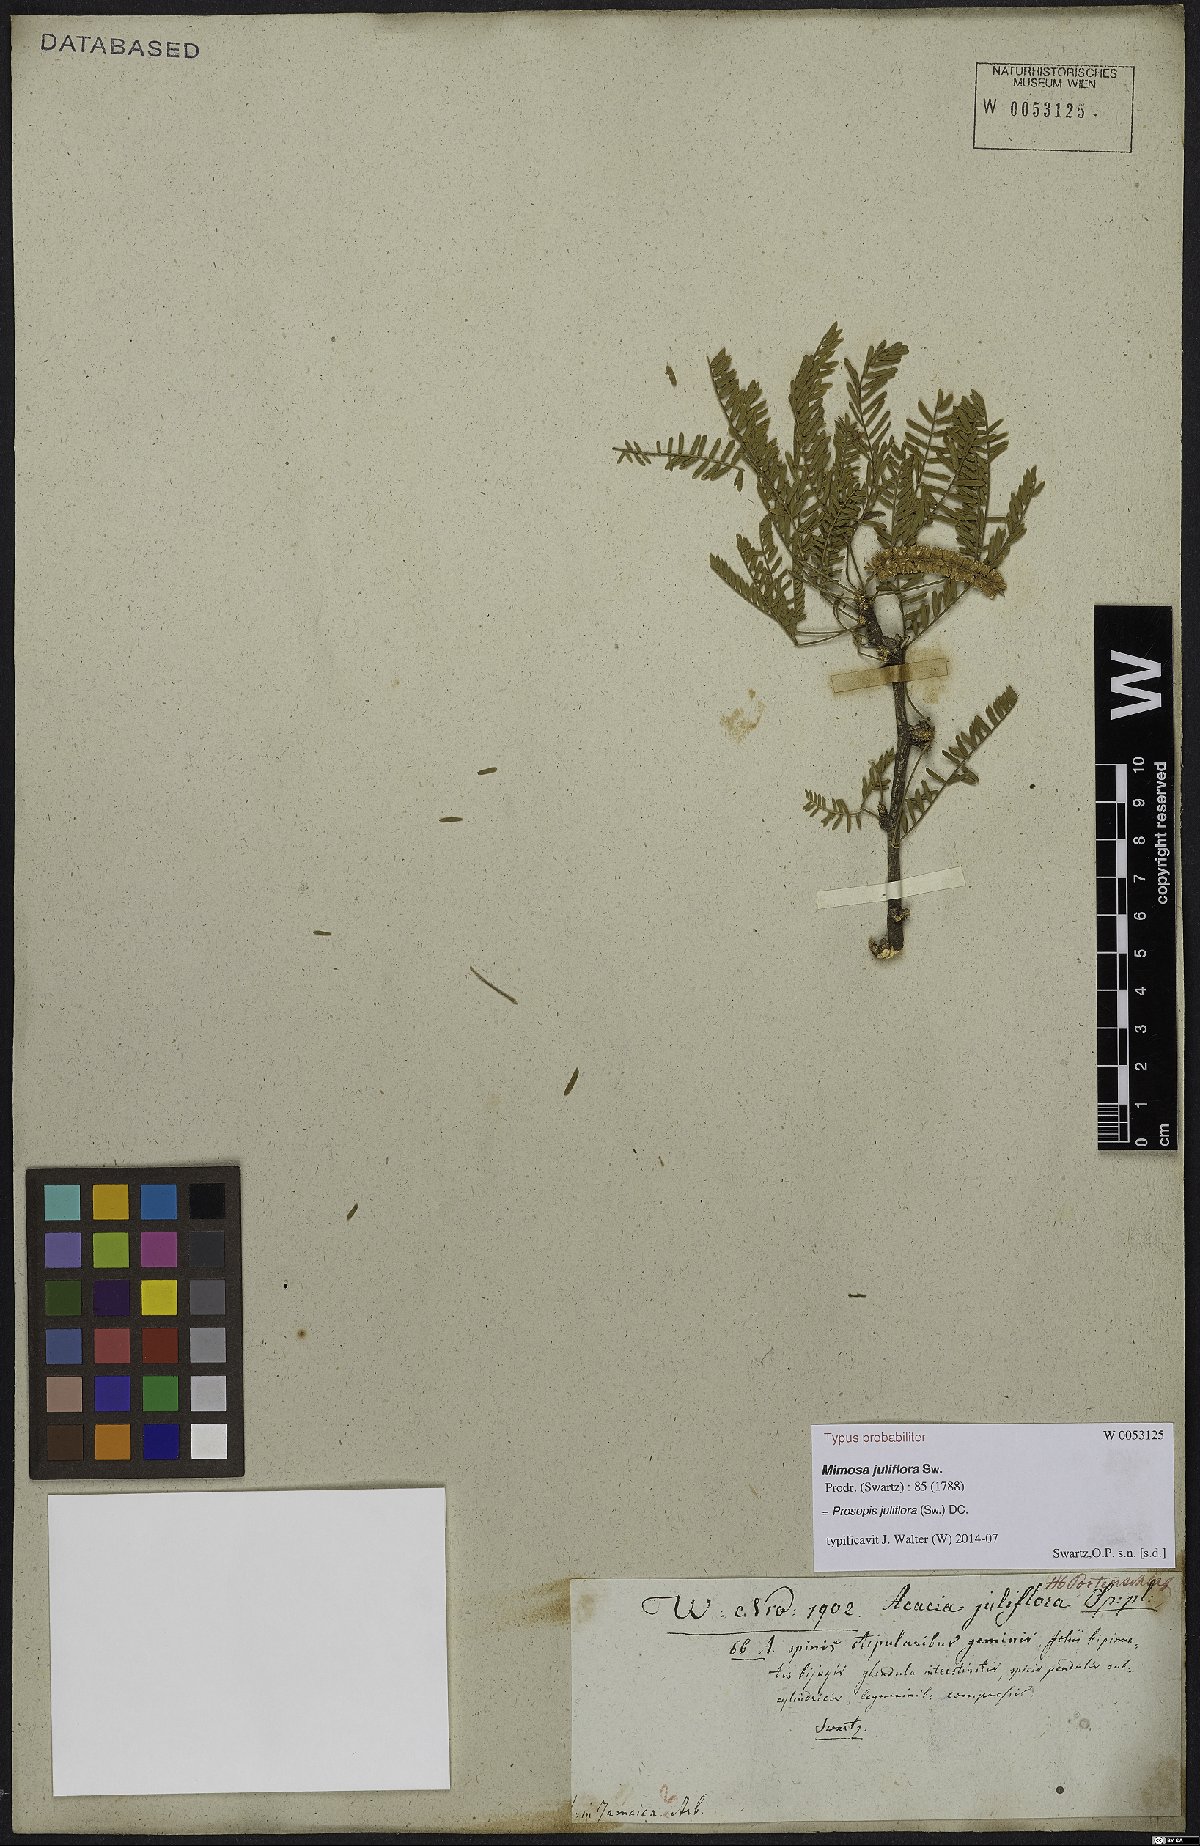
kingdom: Plantae
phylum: Tracheophyta
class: Magnoliopsida
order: Fabales
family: Fabaceae
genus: Prosopis
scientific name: Prosopis juliflora
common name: Mesquite
